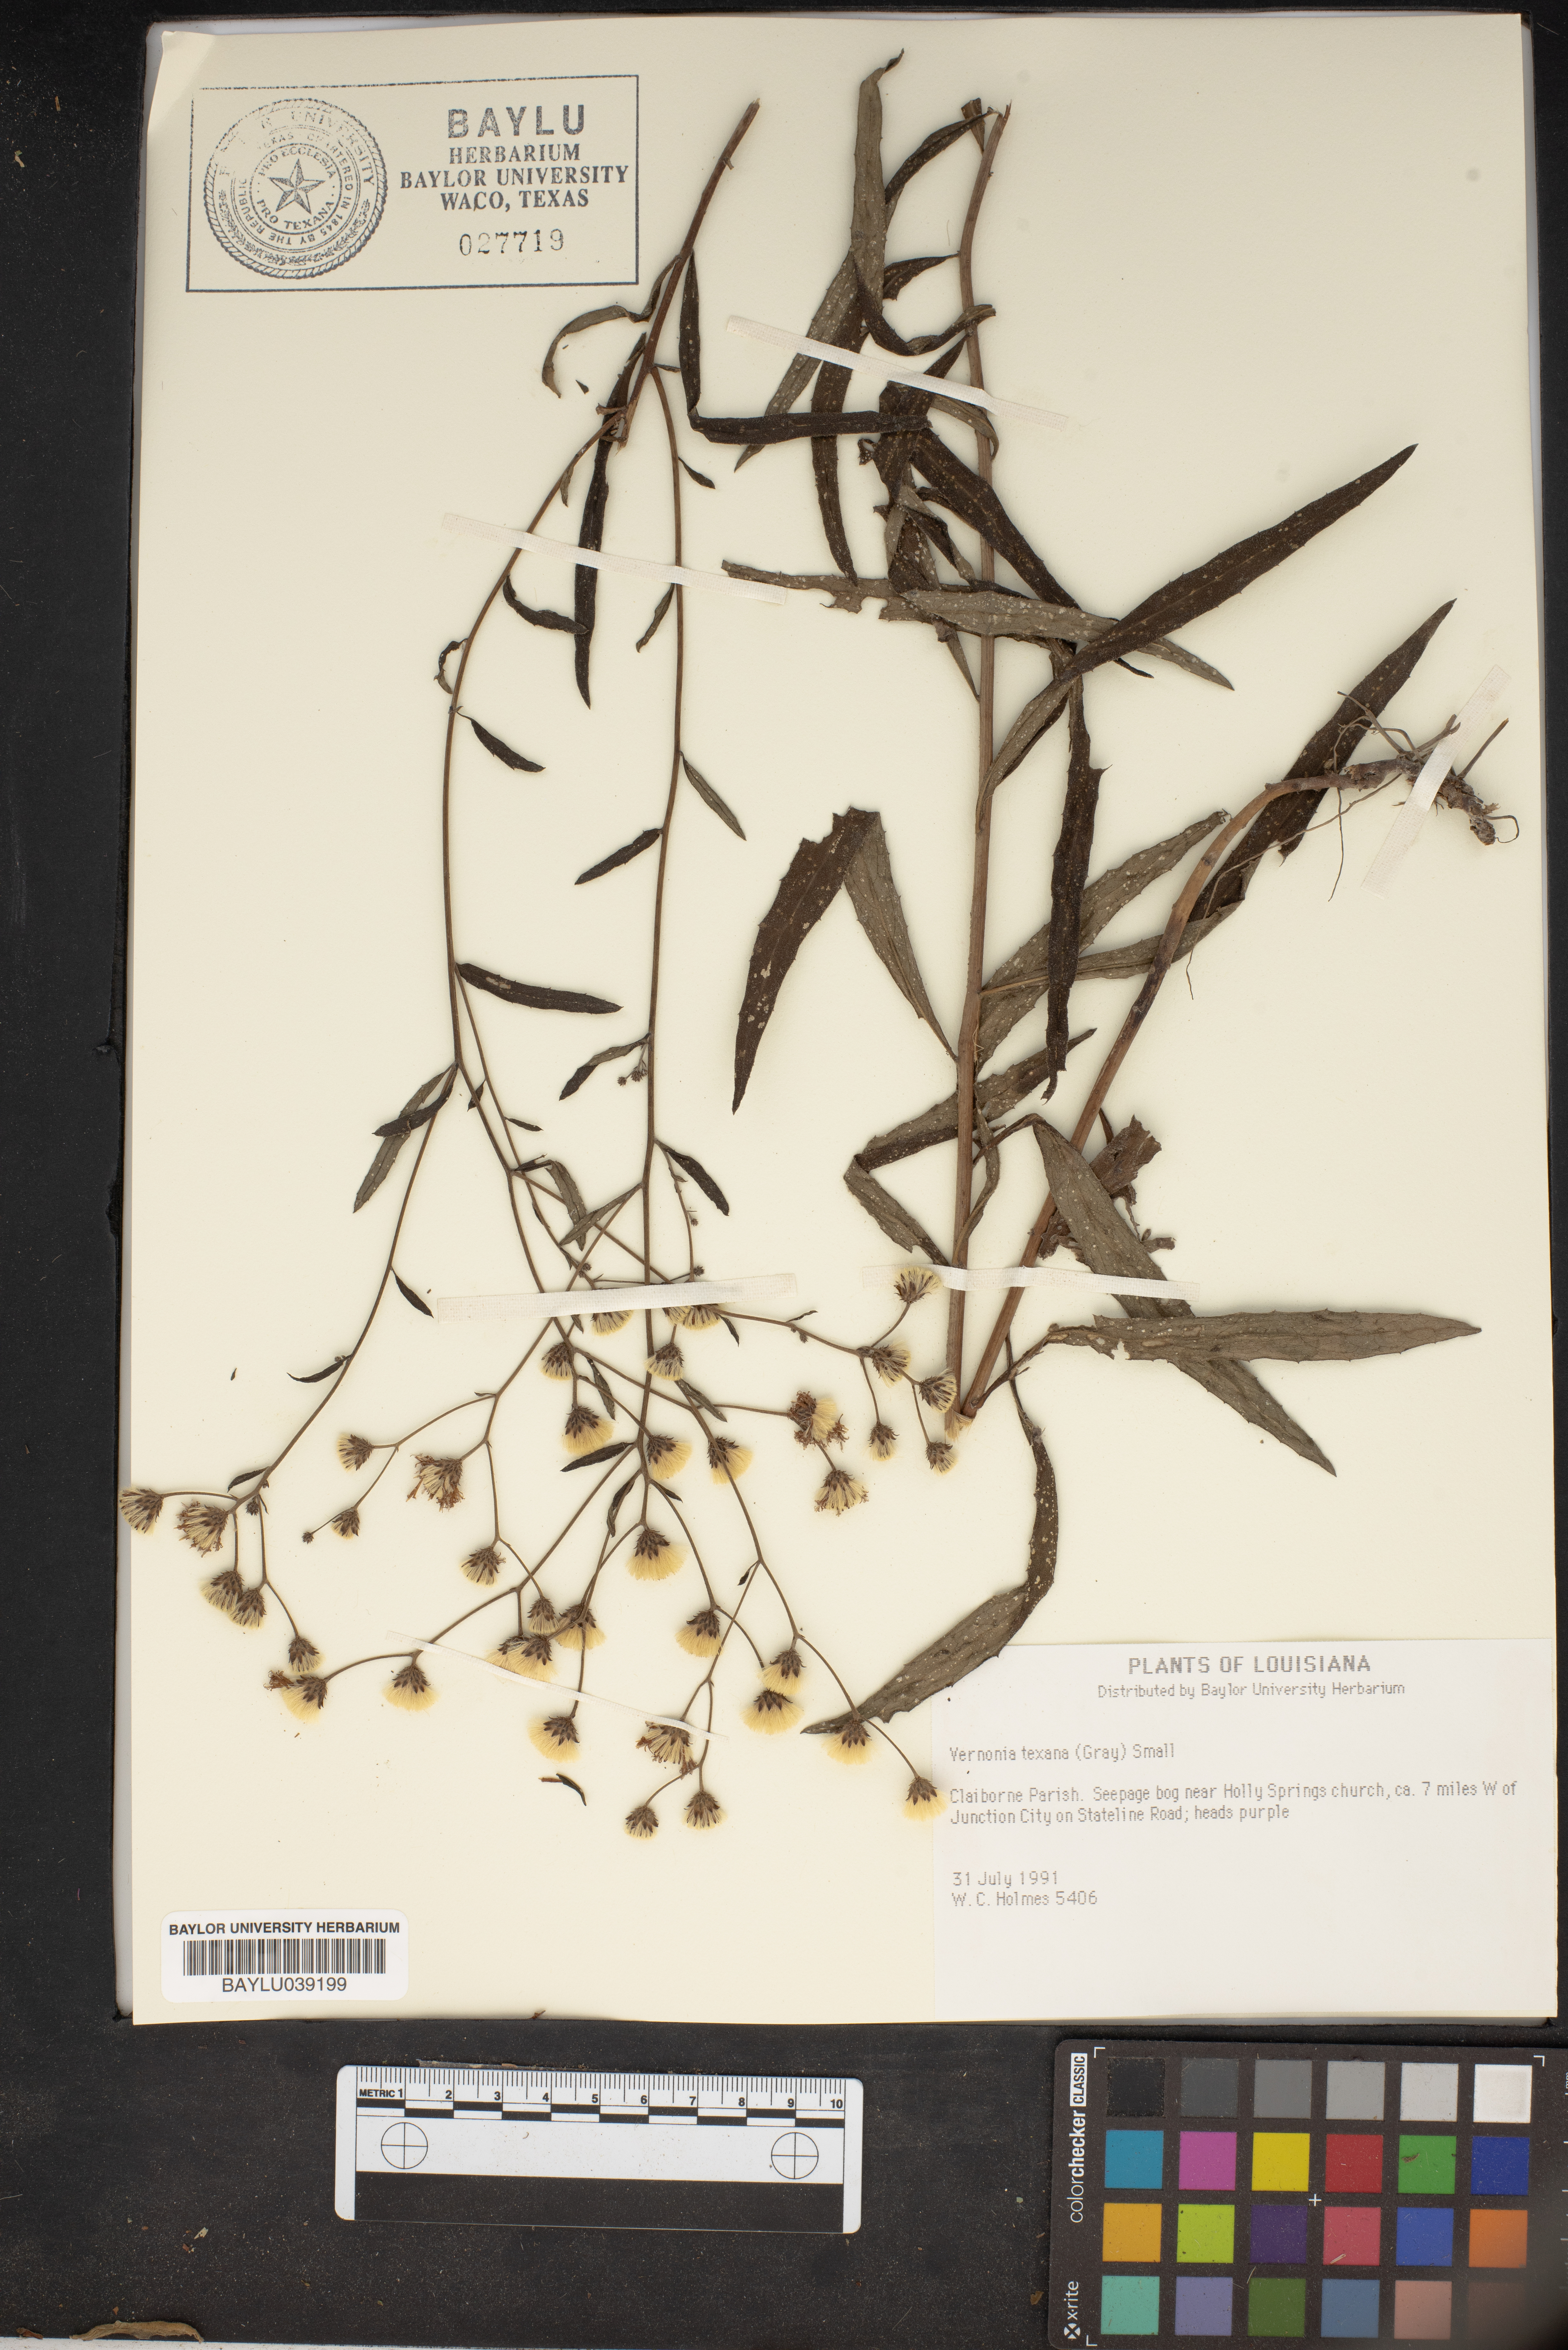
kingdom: Plantae
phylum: Tracheophyta
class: Magnoliopsida
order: Asterales
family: Asteraceae
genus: Vernonia
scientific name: Vernonia texana
